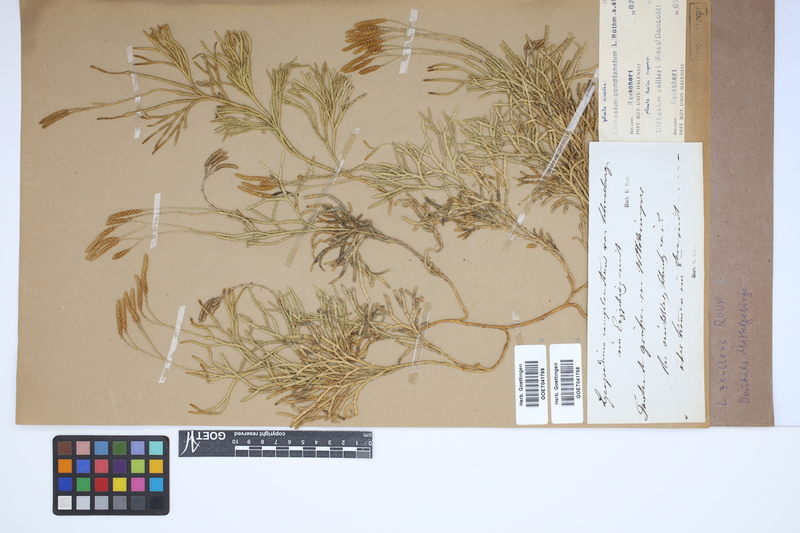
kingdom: Plantae
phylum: Tracheophyta
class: Lycopodiopsida
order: Lycopodiales
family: Lycopodiaceae
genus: Diphasiastrum
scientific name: Diphasiastrum complanatum
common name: Northern running-pine
